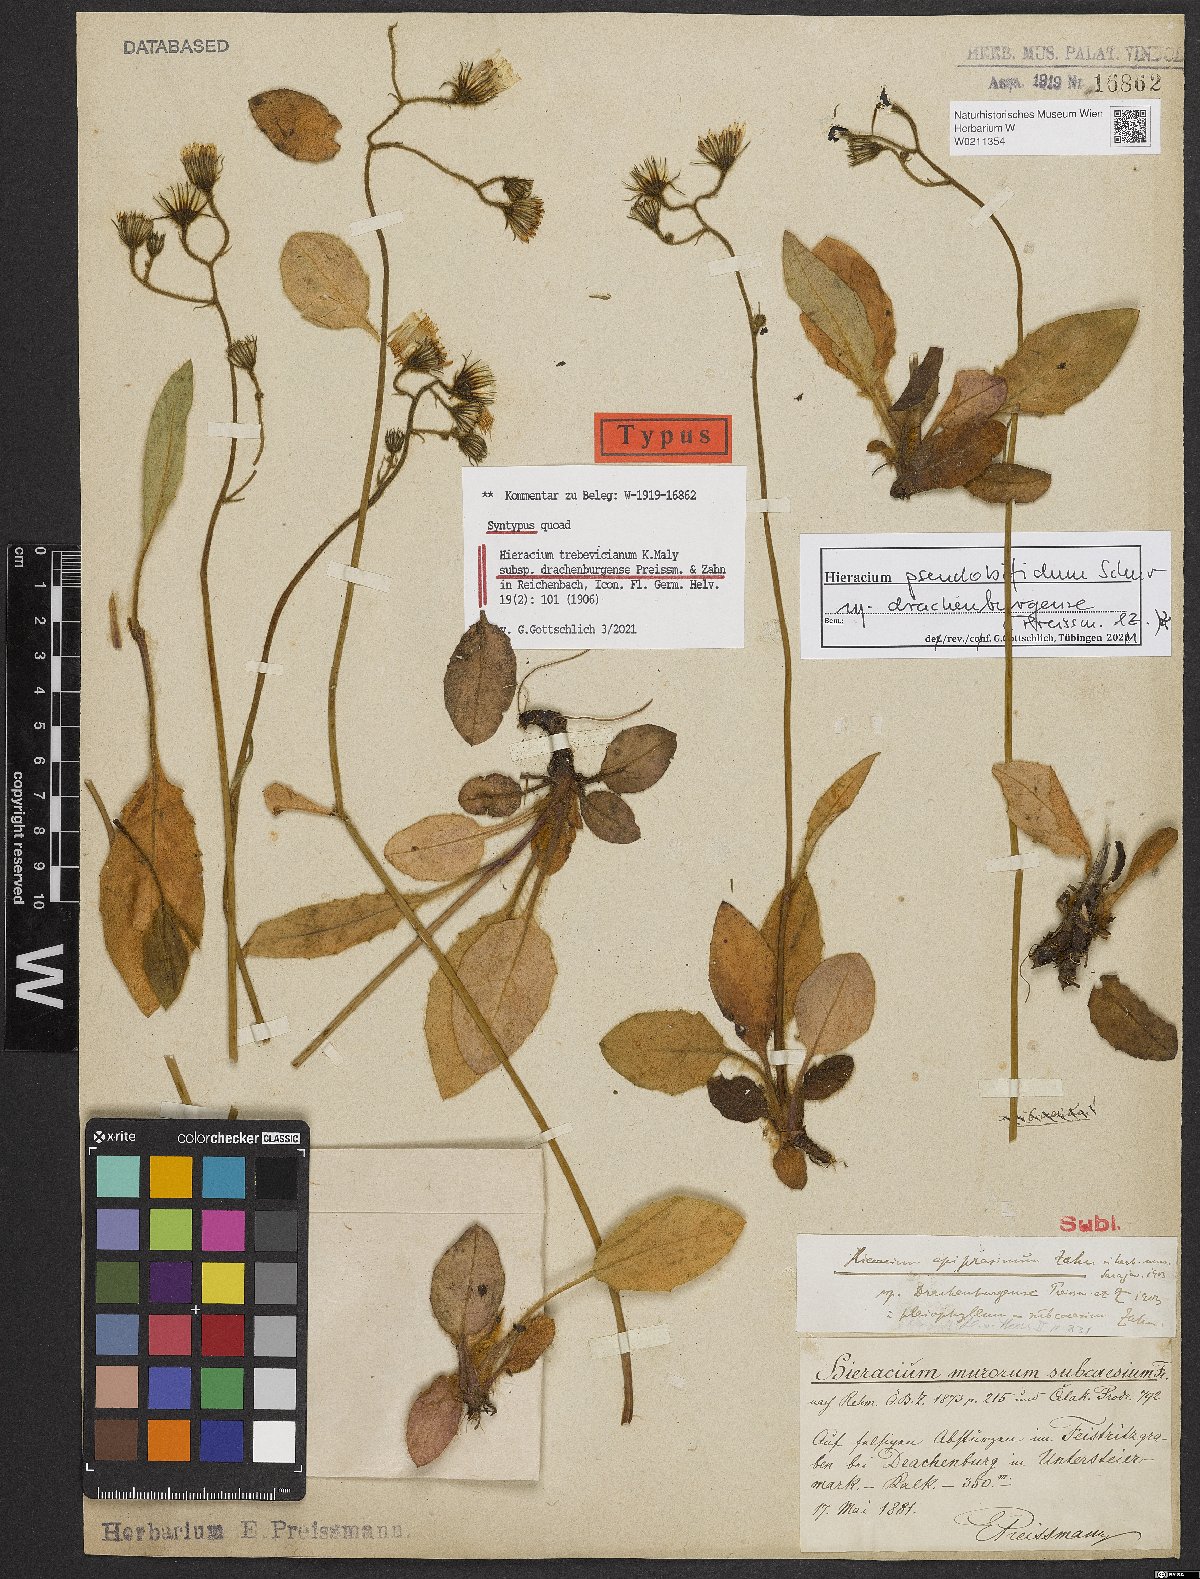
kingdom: Plantae
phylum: Tracheophyta
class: Magnoliopsida
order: Asterales
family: Asteraceae
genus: Hieracium
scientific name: Hieracium pseudobifidum
